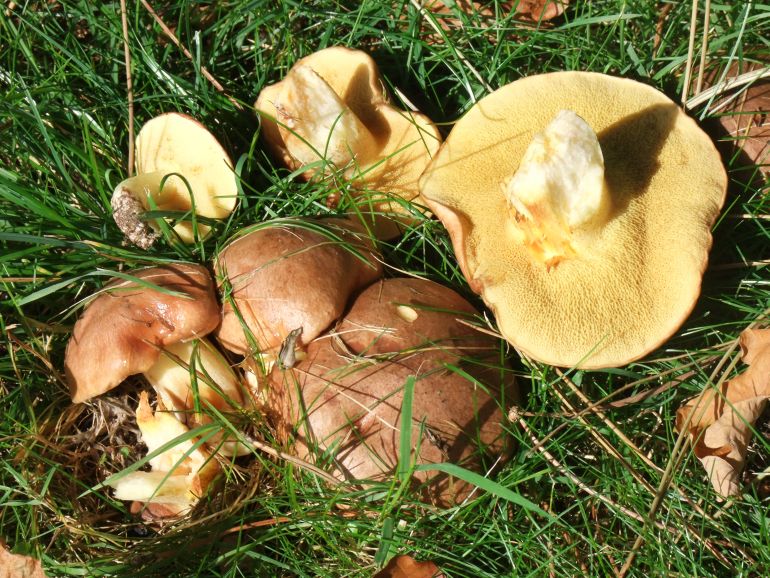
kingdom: Fungi
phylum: Basidiomycota
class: Agaricomycetes
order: Boletales
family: Suillaceae
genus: Suillus
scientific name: Suillus luteus
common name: brungul slimrørhat
